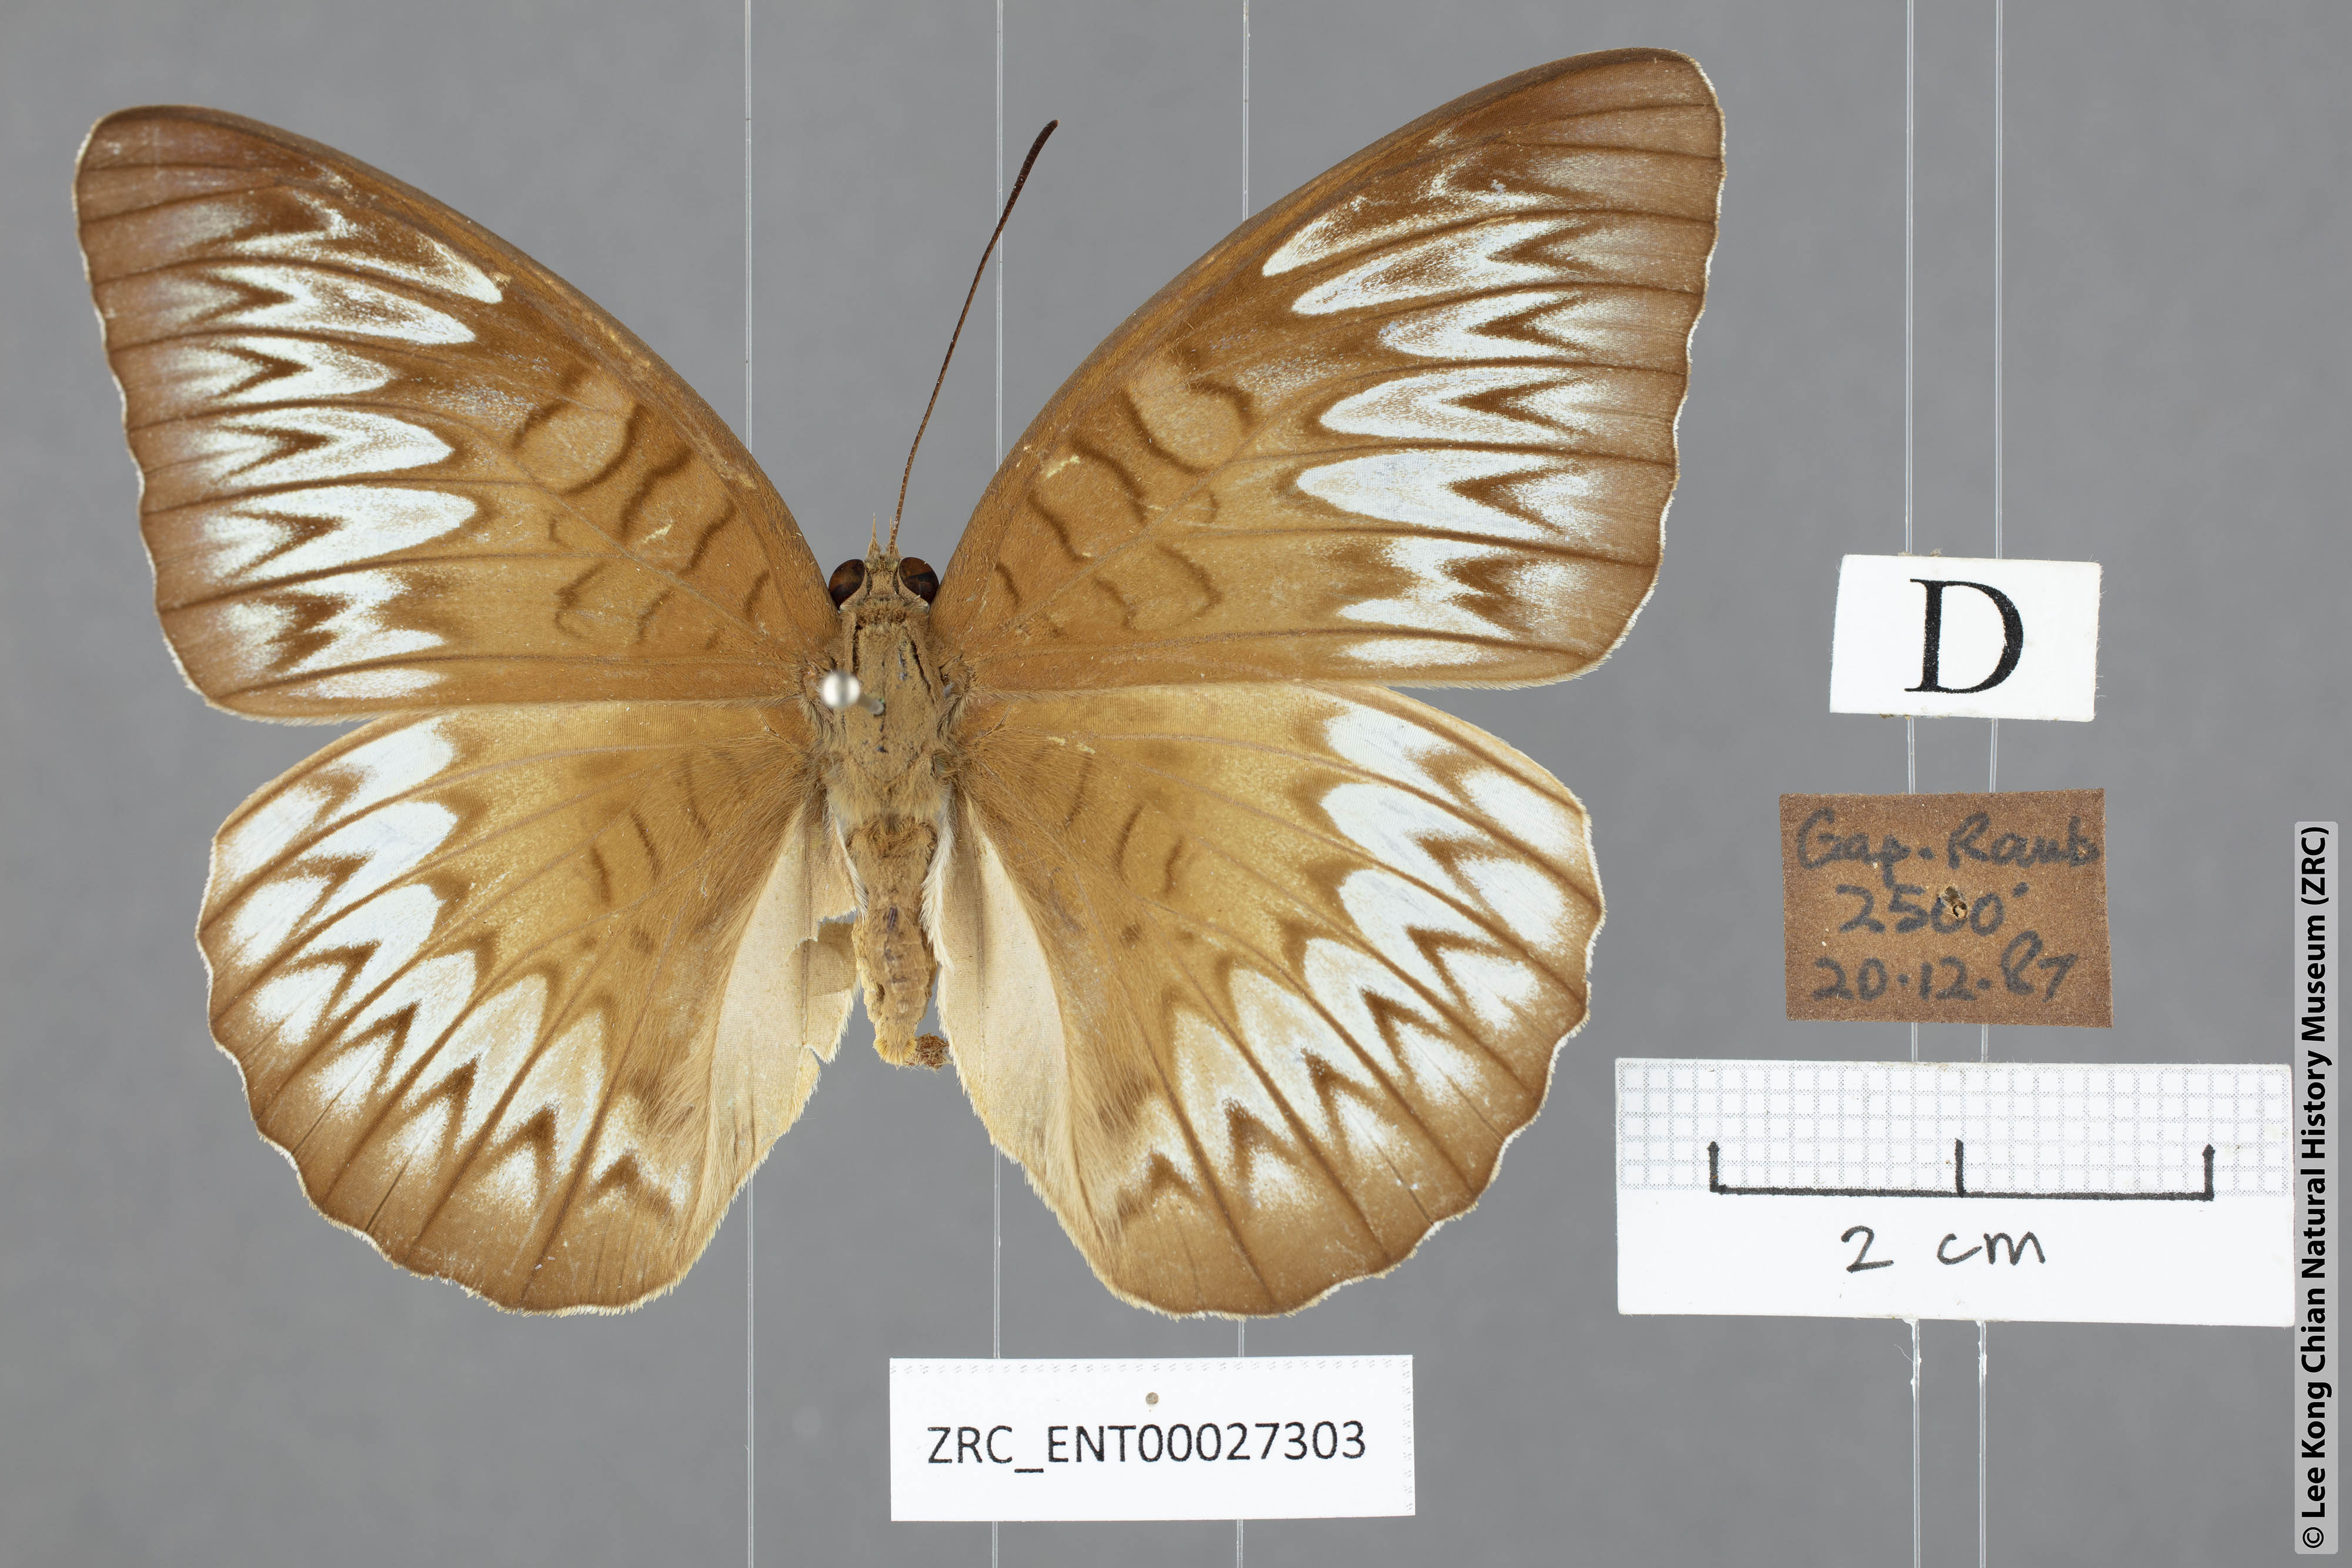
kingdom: Animalia
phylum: Arthropoda
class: Insecta
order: Lepidoptera
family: Nymphalidae
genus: Tanaecia
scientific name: Tanaecia munda
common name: Peninsular viscount
